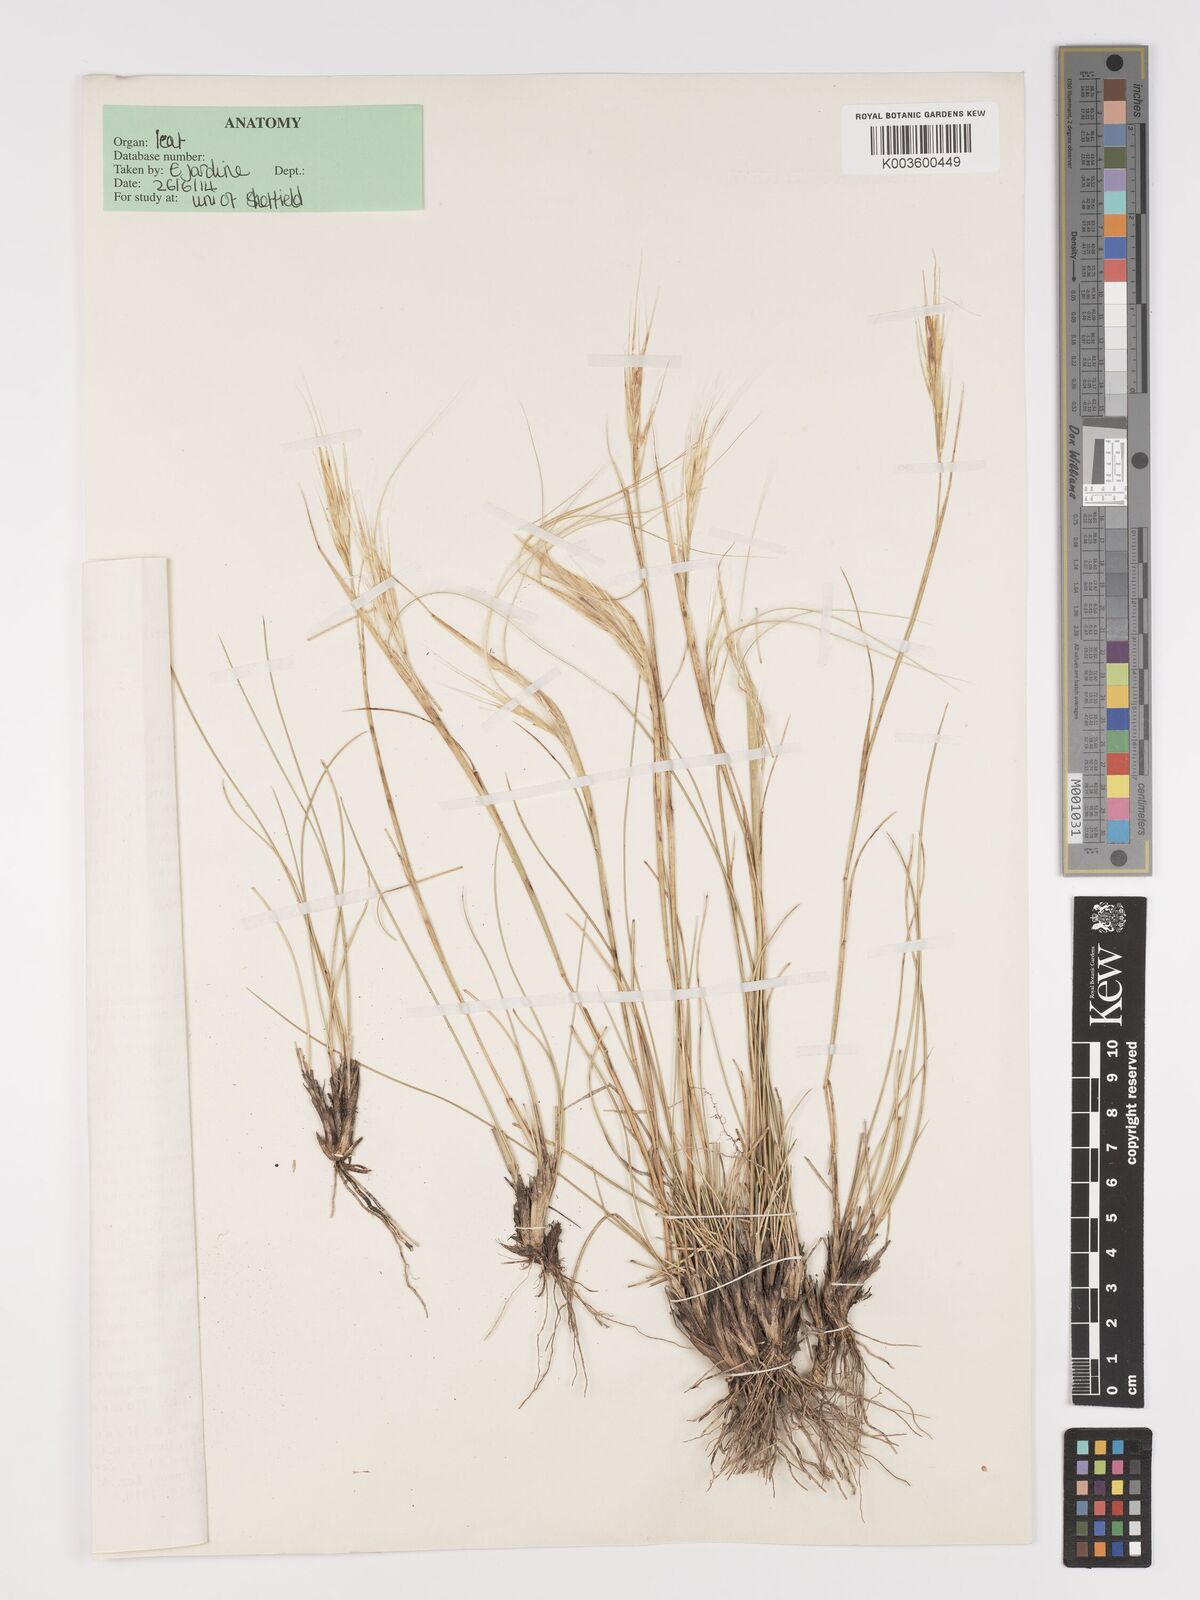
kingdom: Plantae
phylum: Tracheophyta
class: Liliopsida
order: Poales
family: Poaceae
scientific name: Poaceae
